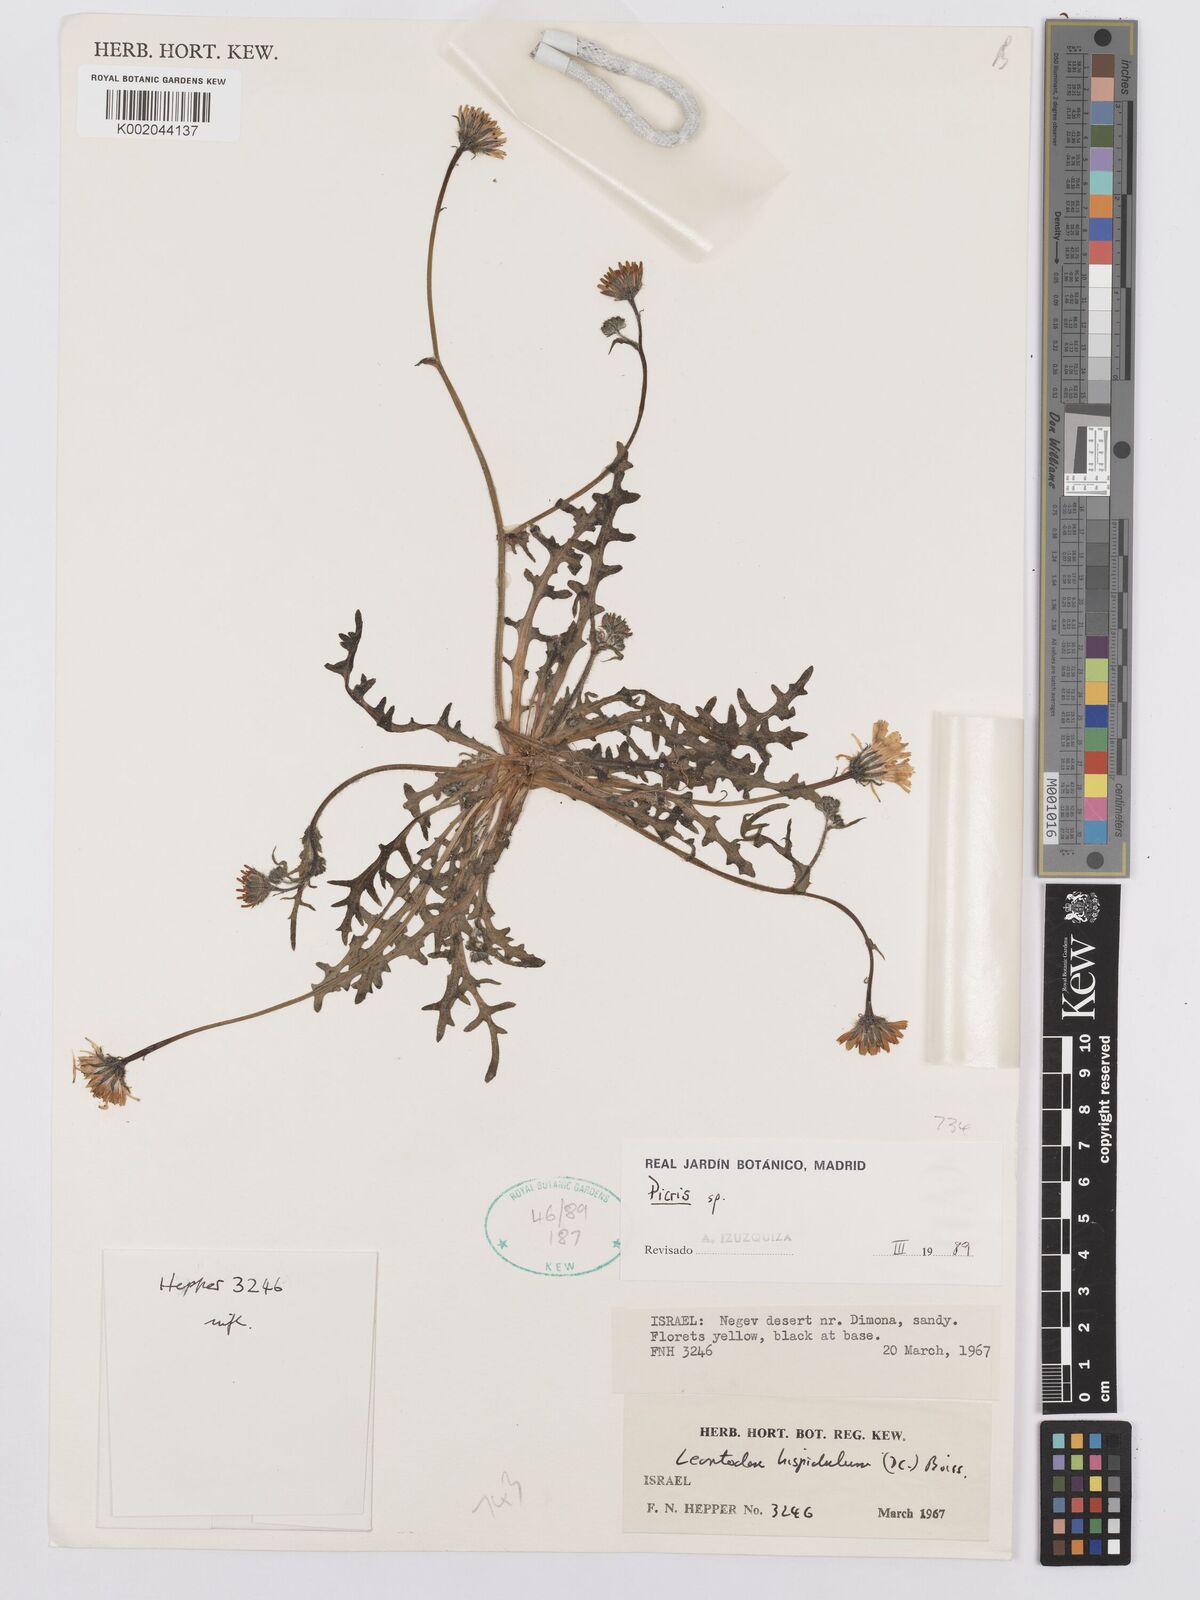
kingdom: Plantae
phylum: Tracheophyta
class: Magnoliopsida
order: Asterales
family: Asteraceae
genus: Picris
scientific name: Picris
